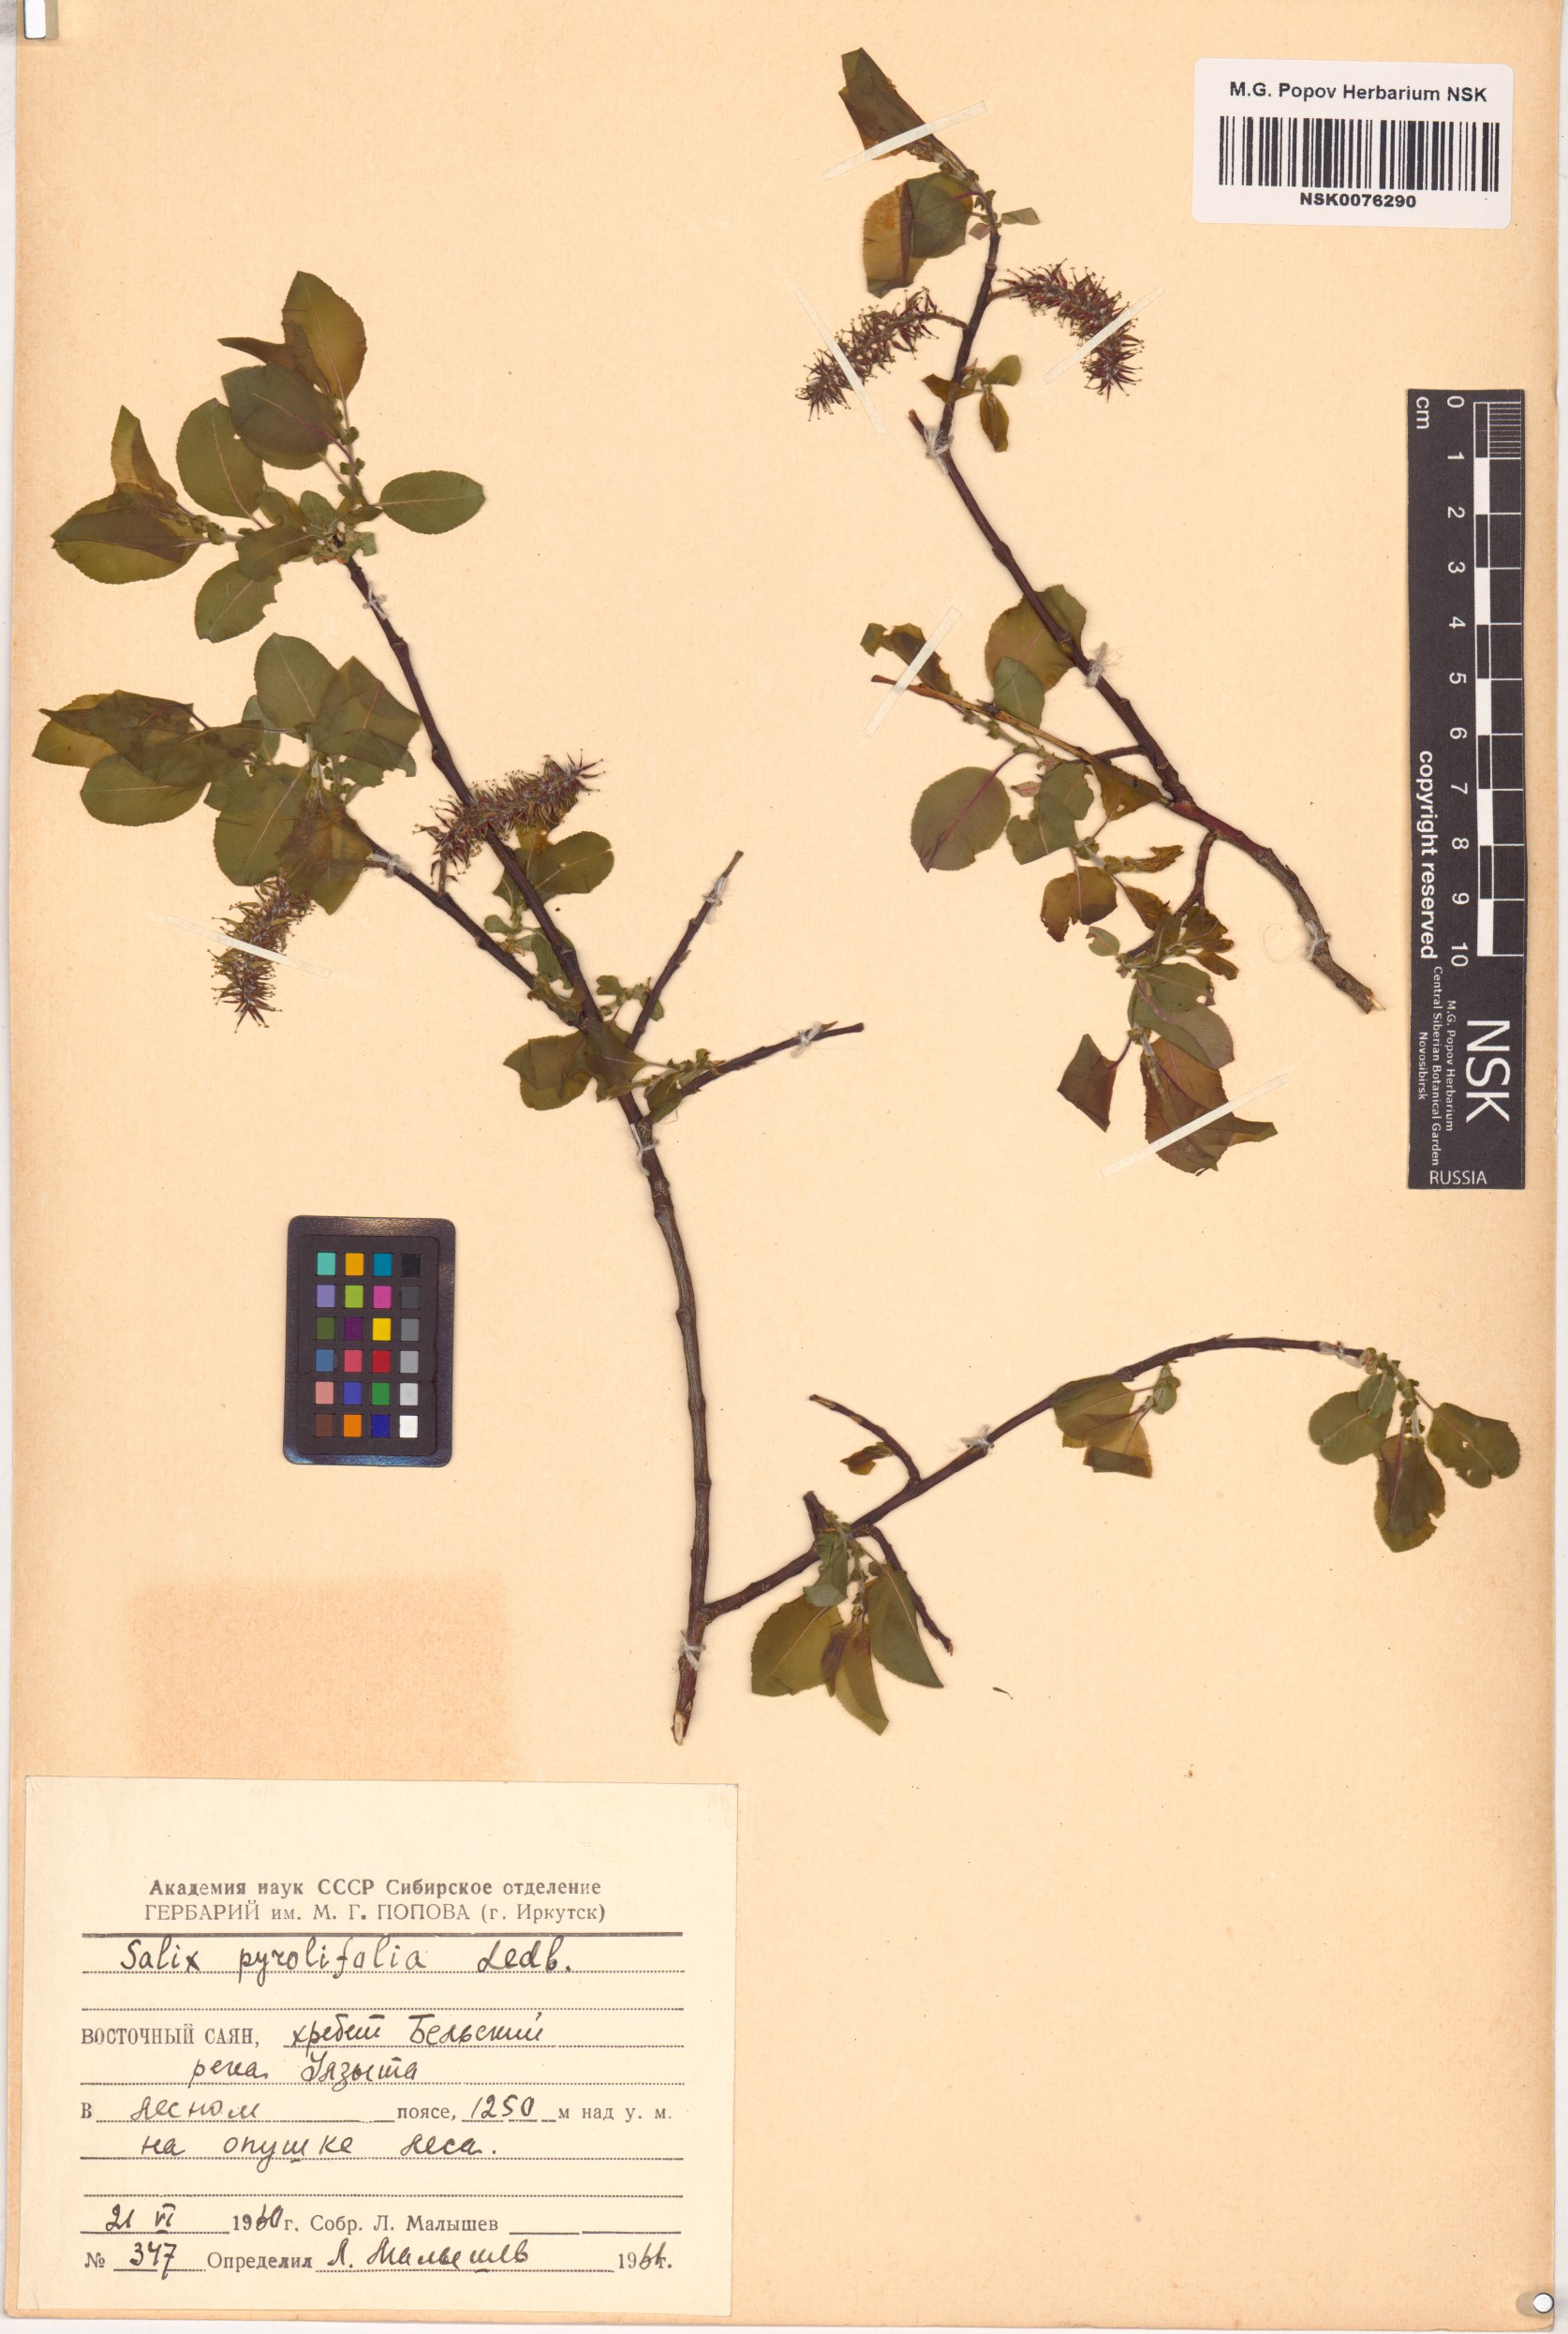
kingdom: Plantae
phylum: Tracheophyta
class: Magnoliopsida
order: Malpighiales
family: Salicaceae
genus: Salix
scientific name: Salix pyrolifolia
